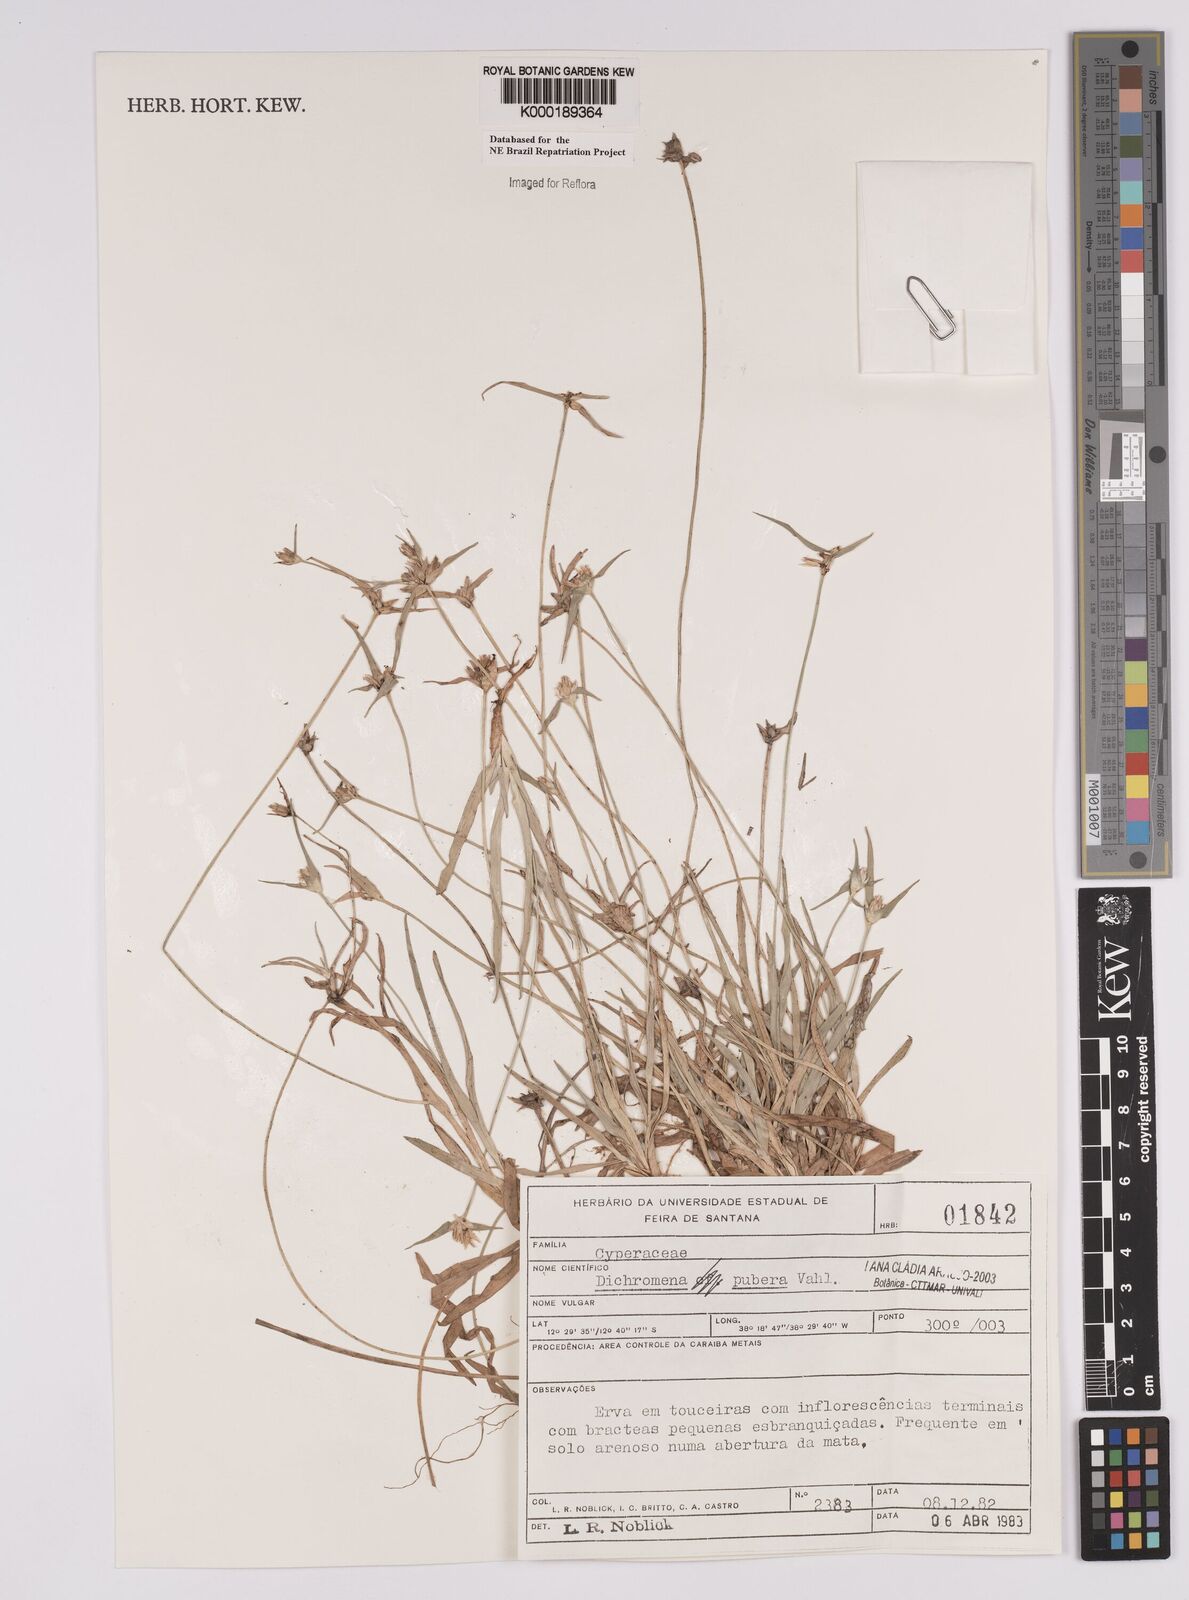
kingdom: Plantae
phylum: Tracheophyta
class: Liliopsida
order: Poales
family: Cyperaceae
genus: Rhynchospora
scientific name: Rhynchospora pubera
